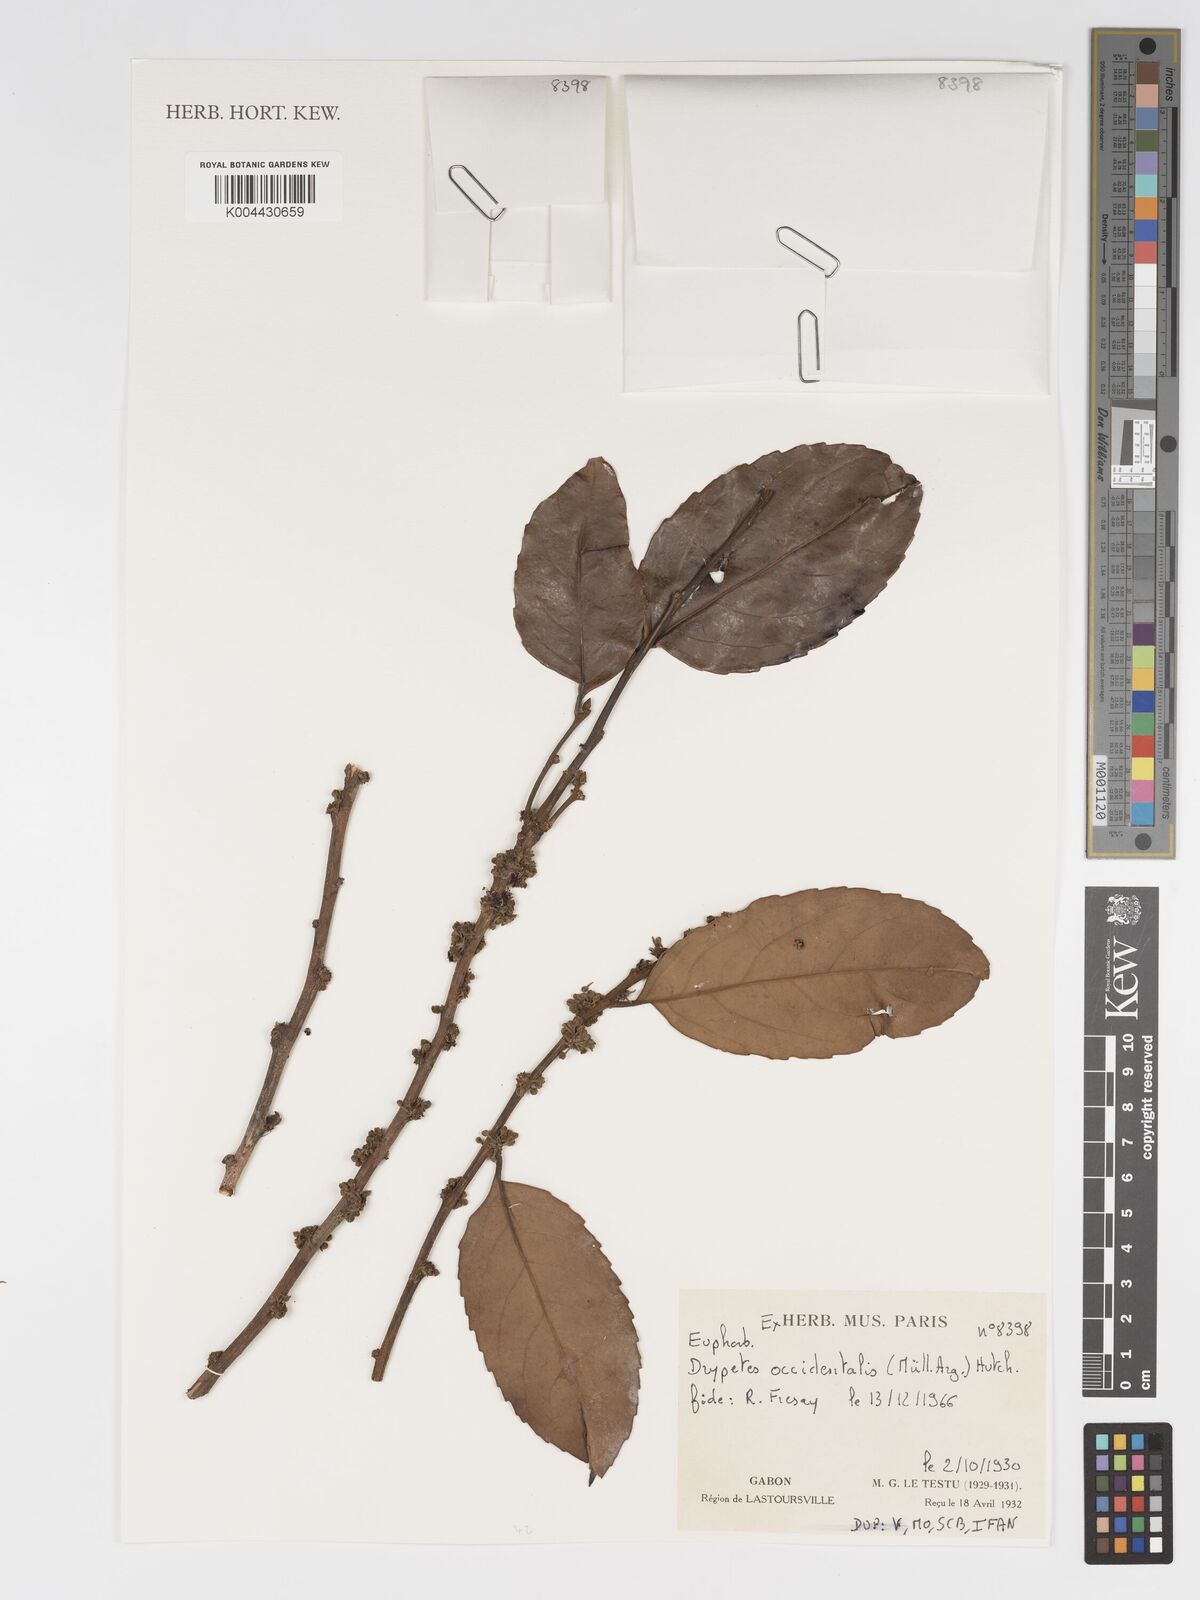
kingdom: Plantae
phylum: Tracheophyta
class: Magnoliopsida
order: Malpighiales
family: Putranjivaceae
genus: Drypetes
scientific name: Drypetes occidentalis
